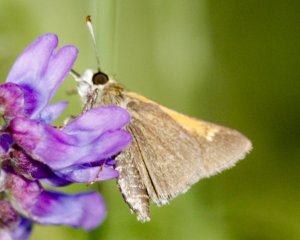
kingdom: Animalia
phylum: Arthropoda
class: Insecta
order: Lepidoptera
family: Hesperiidae
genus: Polites
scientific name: Polites themistocles
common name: Tawny-edged Skipper
